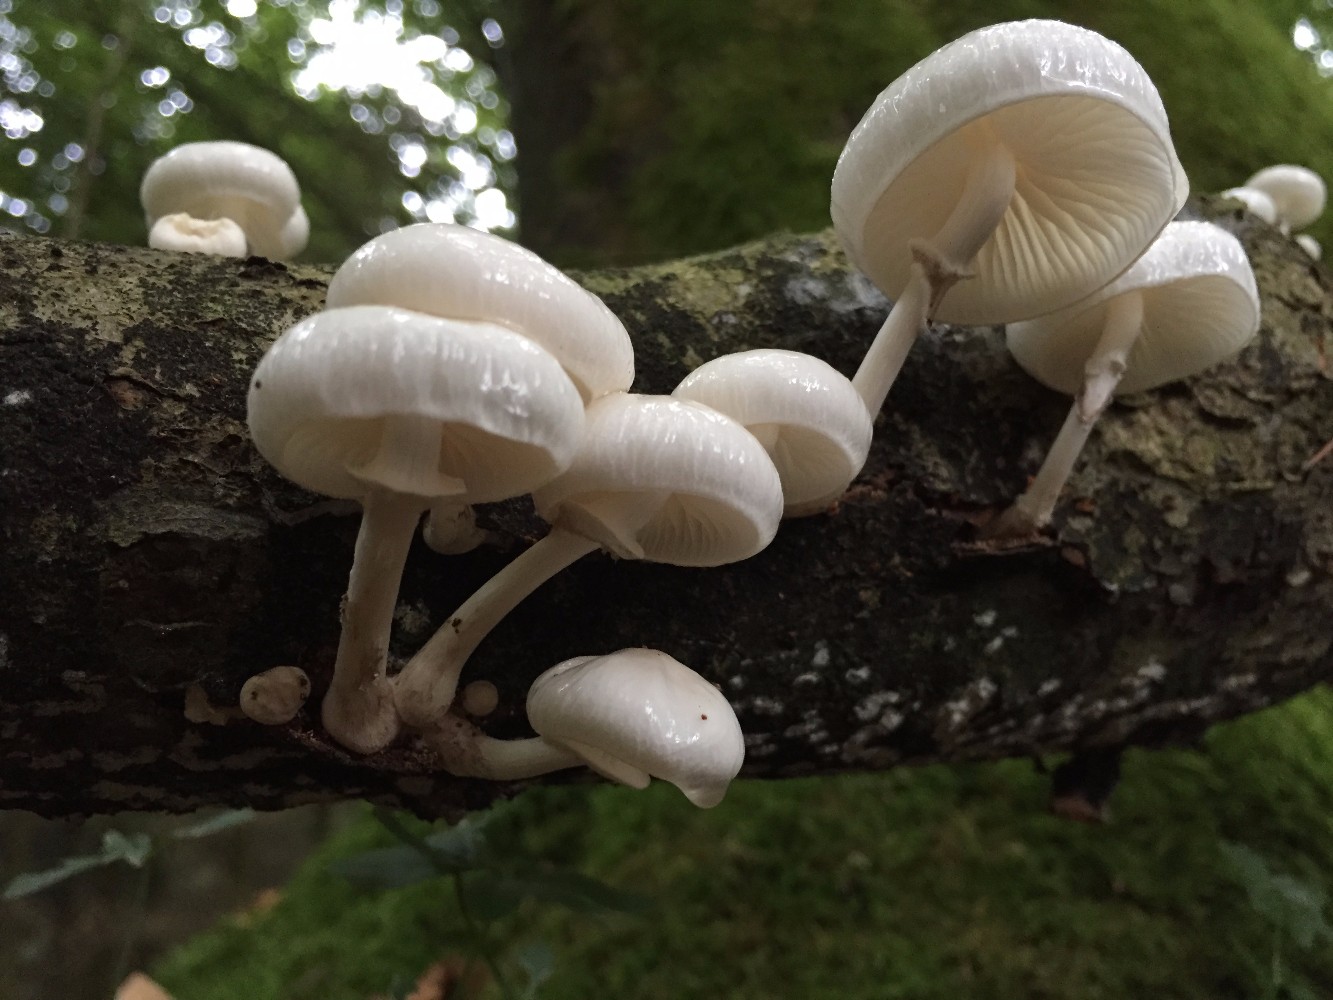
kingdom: Fungi
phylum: Basidiomycota
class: Agaricomycetes
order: Agaricales
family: Physalacriaceae
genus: Mucidula
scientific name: Mucidula mucida
